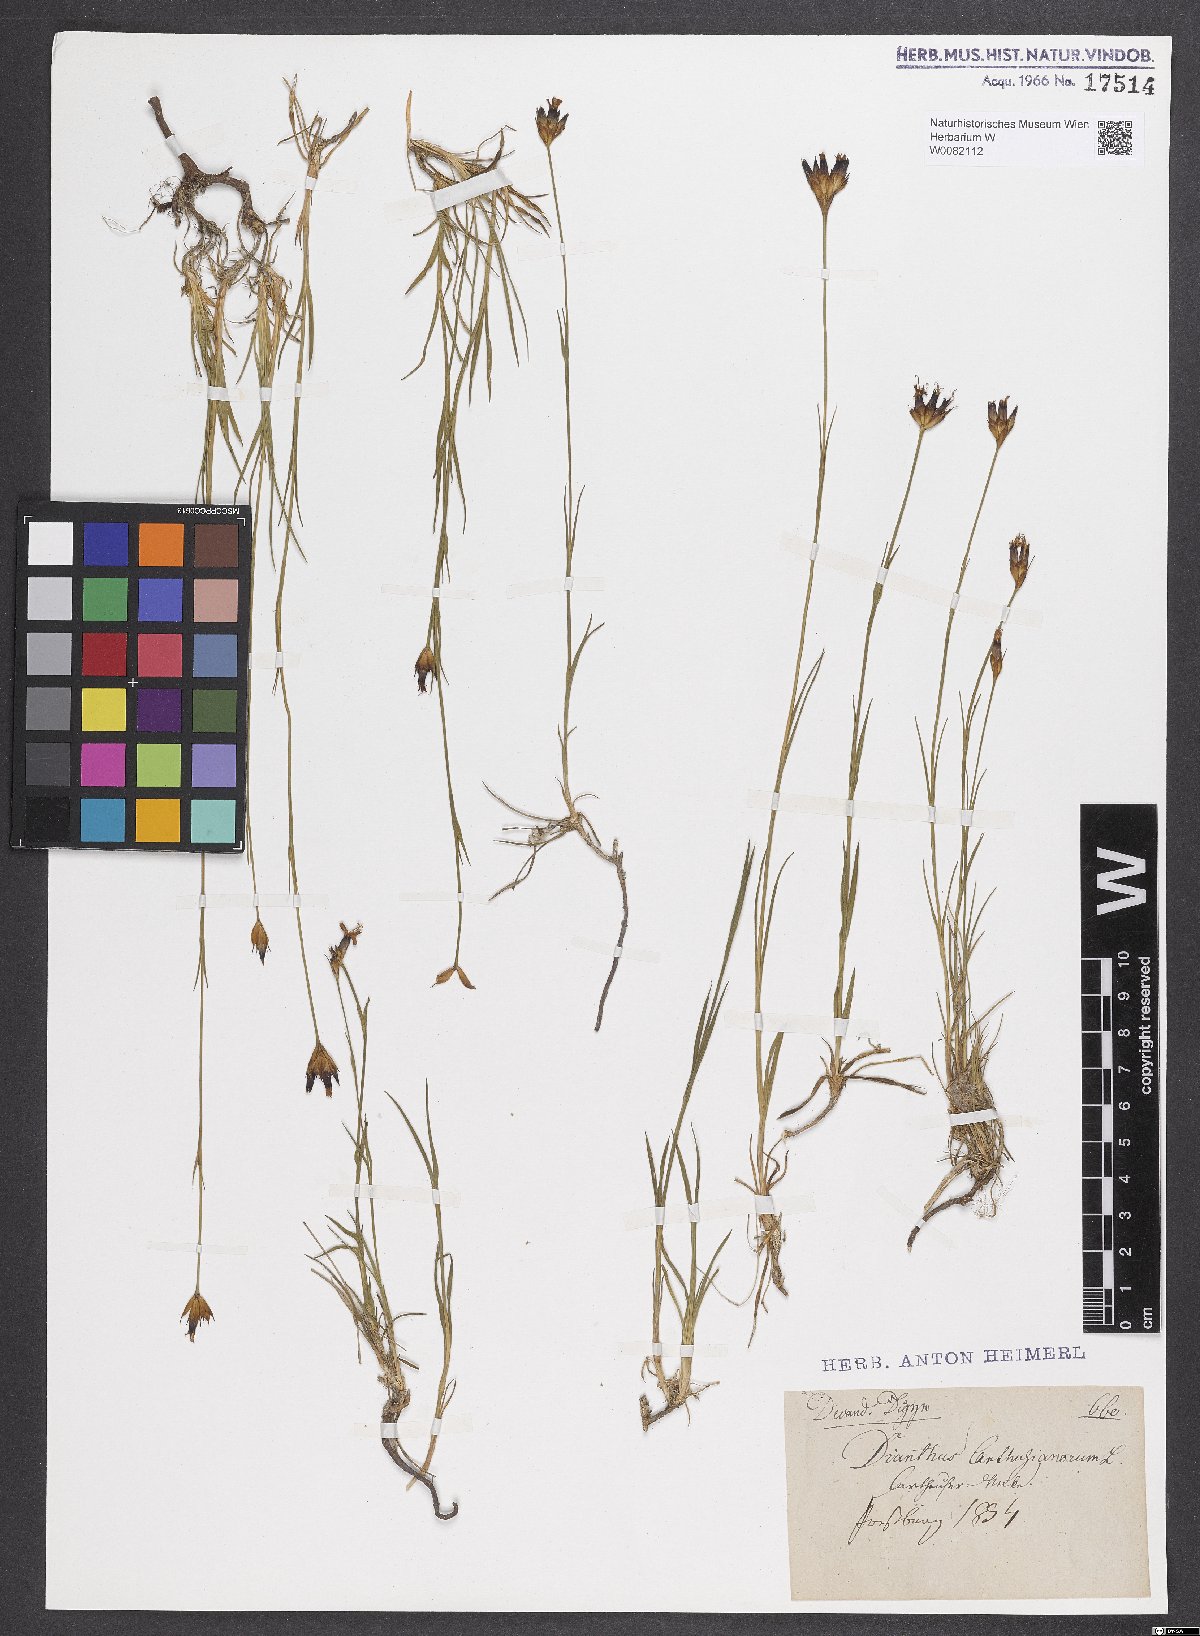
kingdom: Plantae
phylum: Tracheophyta
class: Magnoliopsida
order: Caryophyllales
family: Caryophyllaceae
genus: Dianthus
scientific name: Dianthus carthusianorum
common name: Carthusian pink
